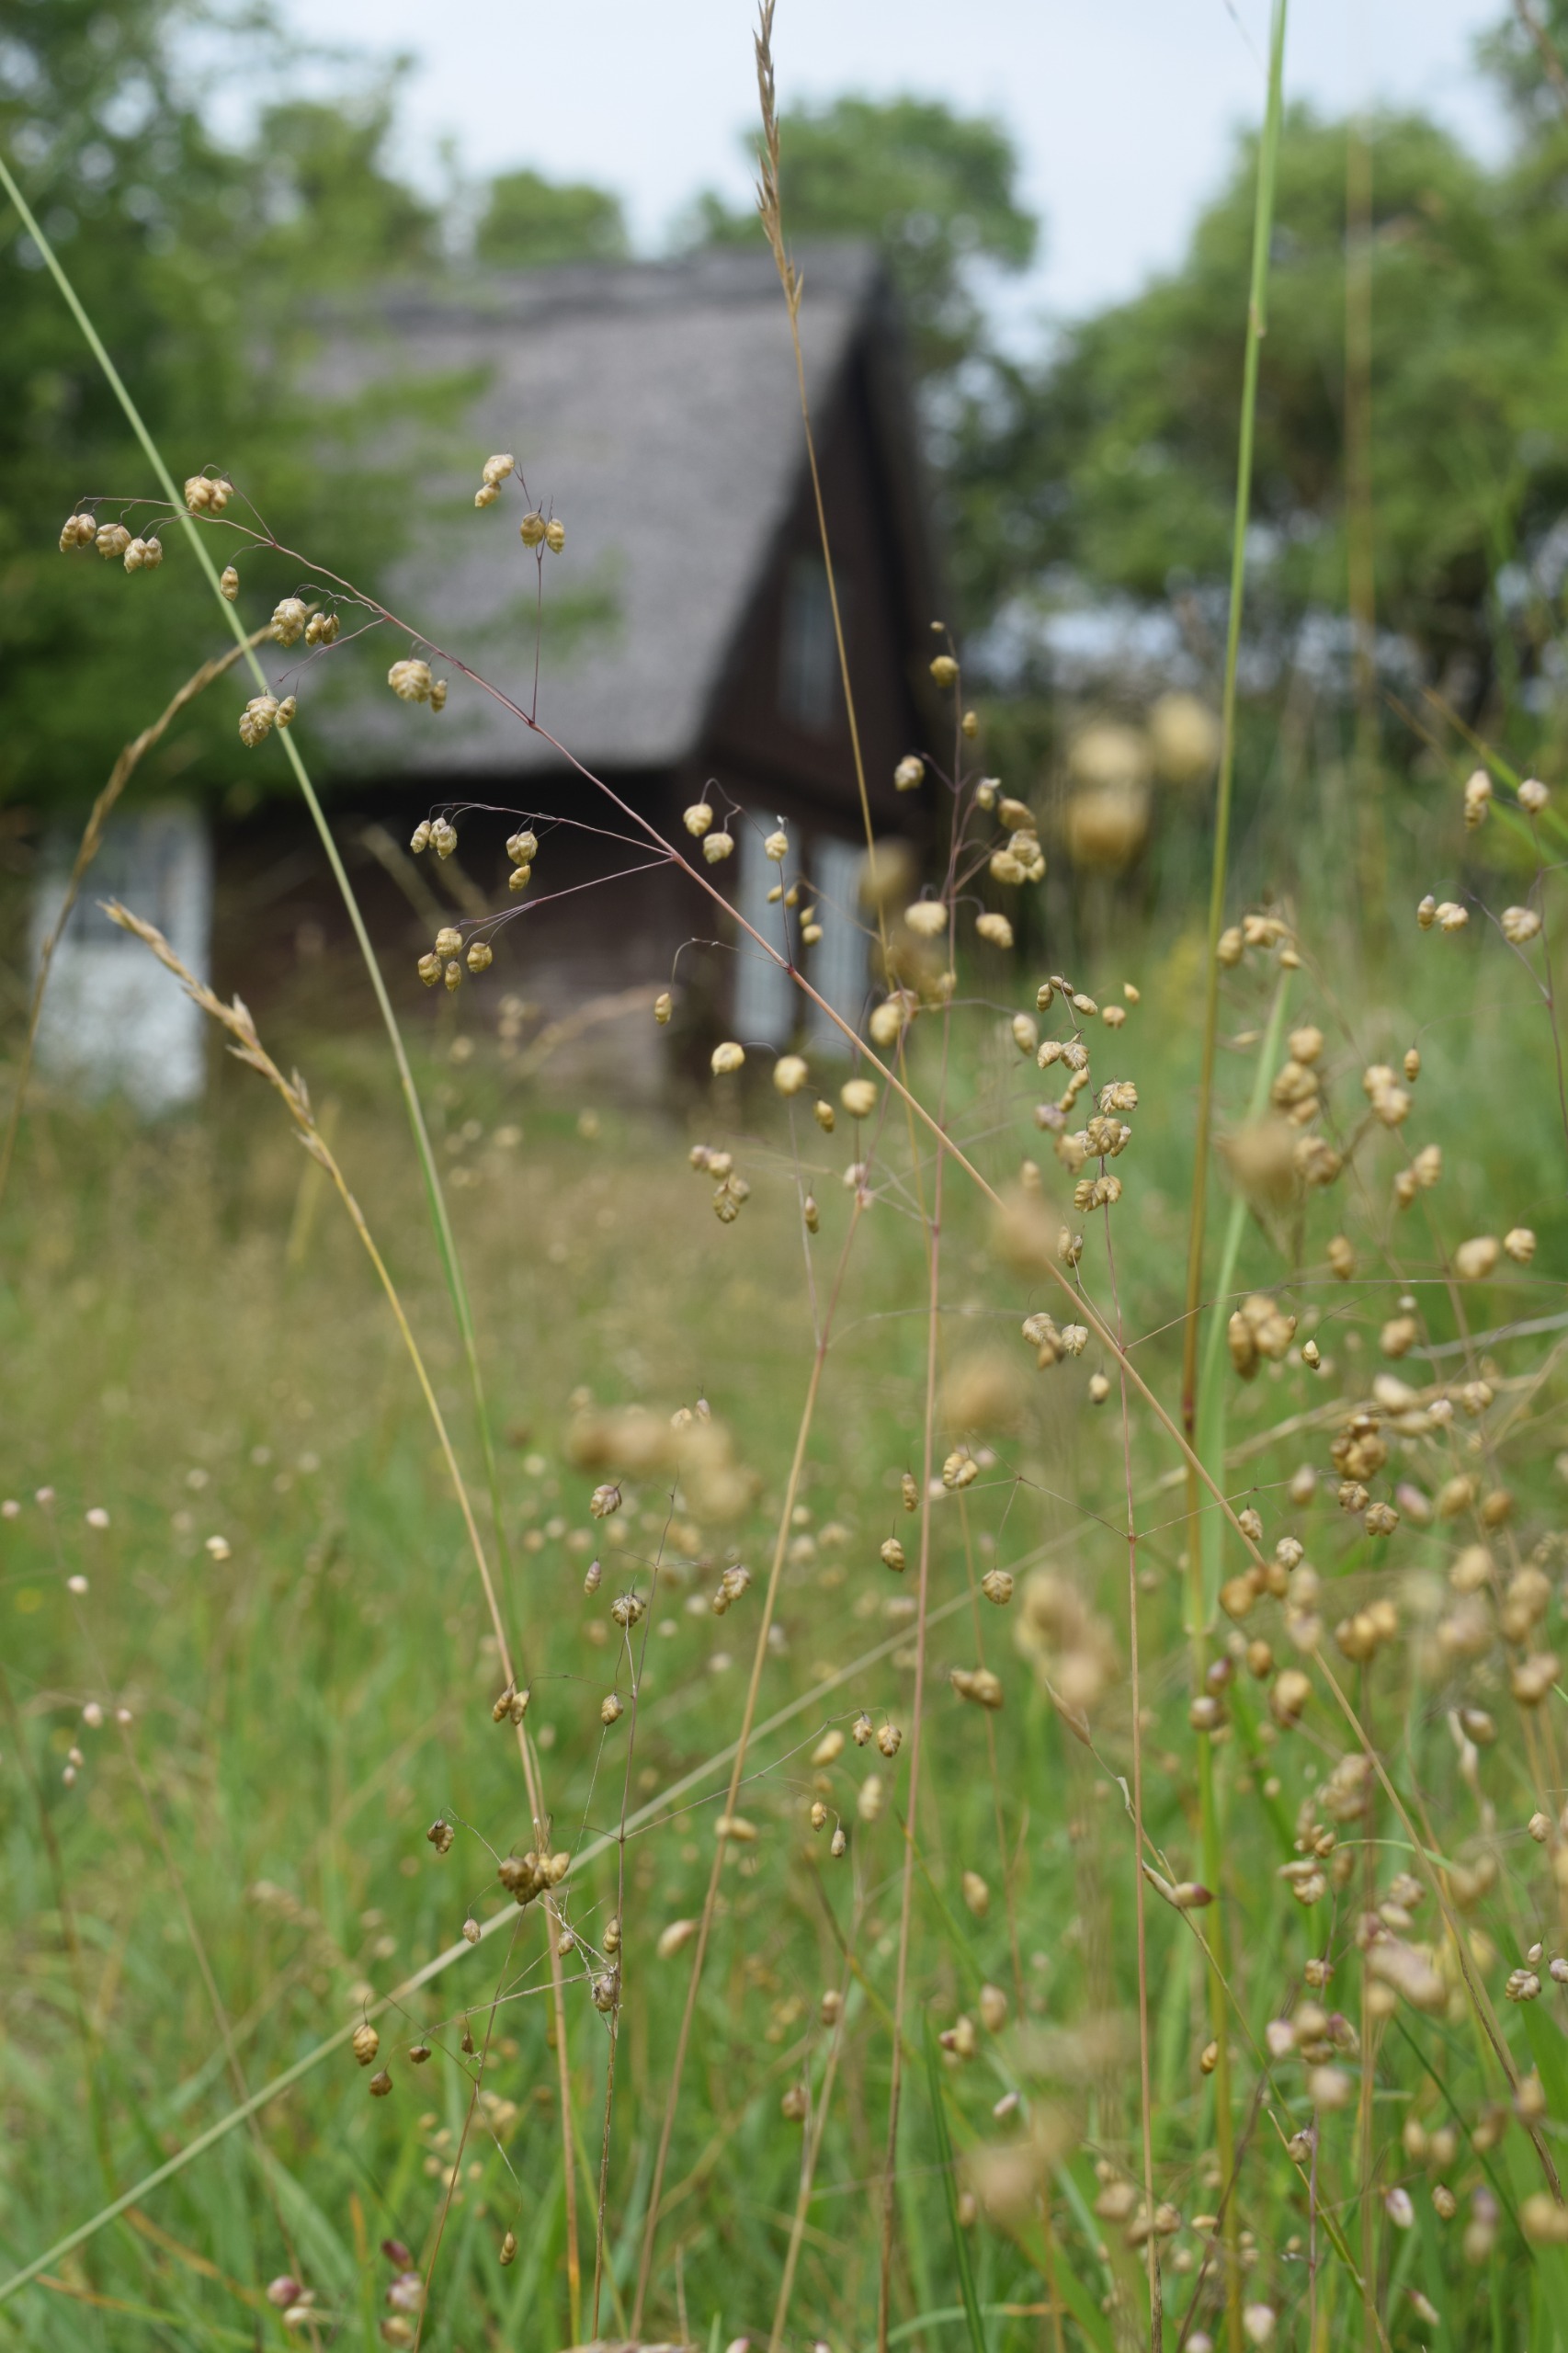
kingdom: Plantae
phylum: Tracheophyta
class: Liliopsida
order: Poales
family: Poaceae
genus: Briza
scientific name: Briza media
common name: Hjertegræs
